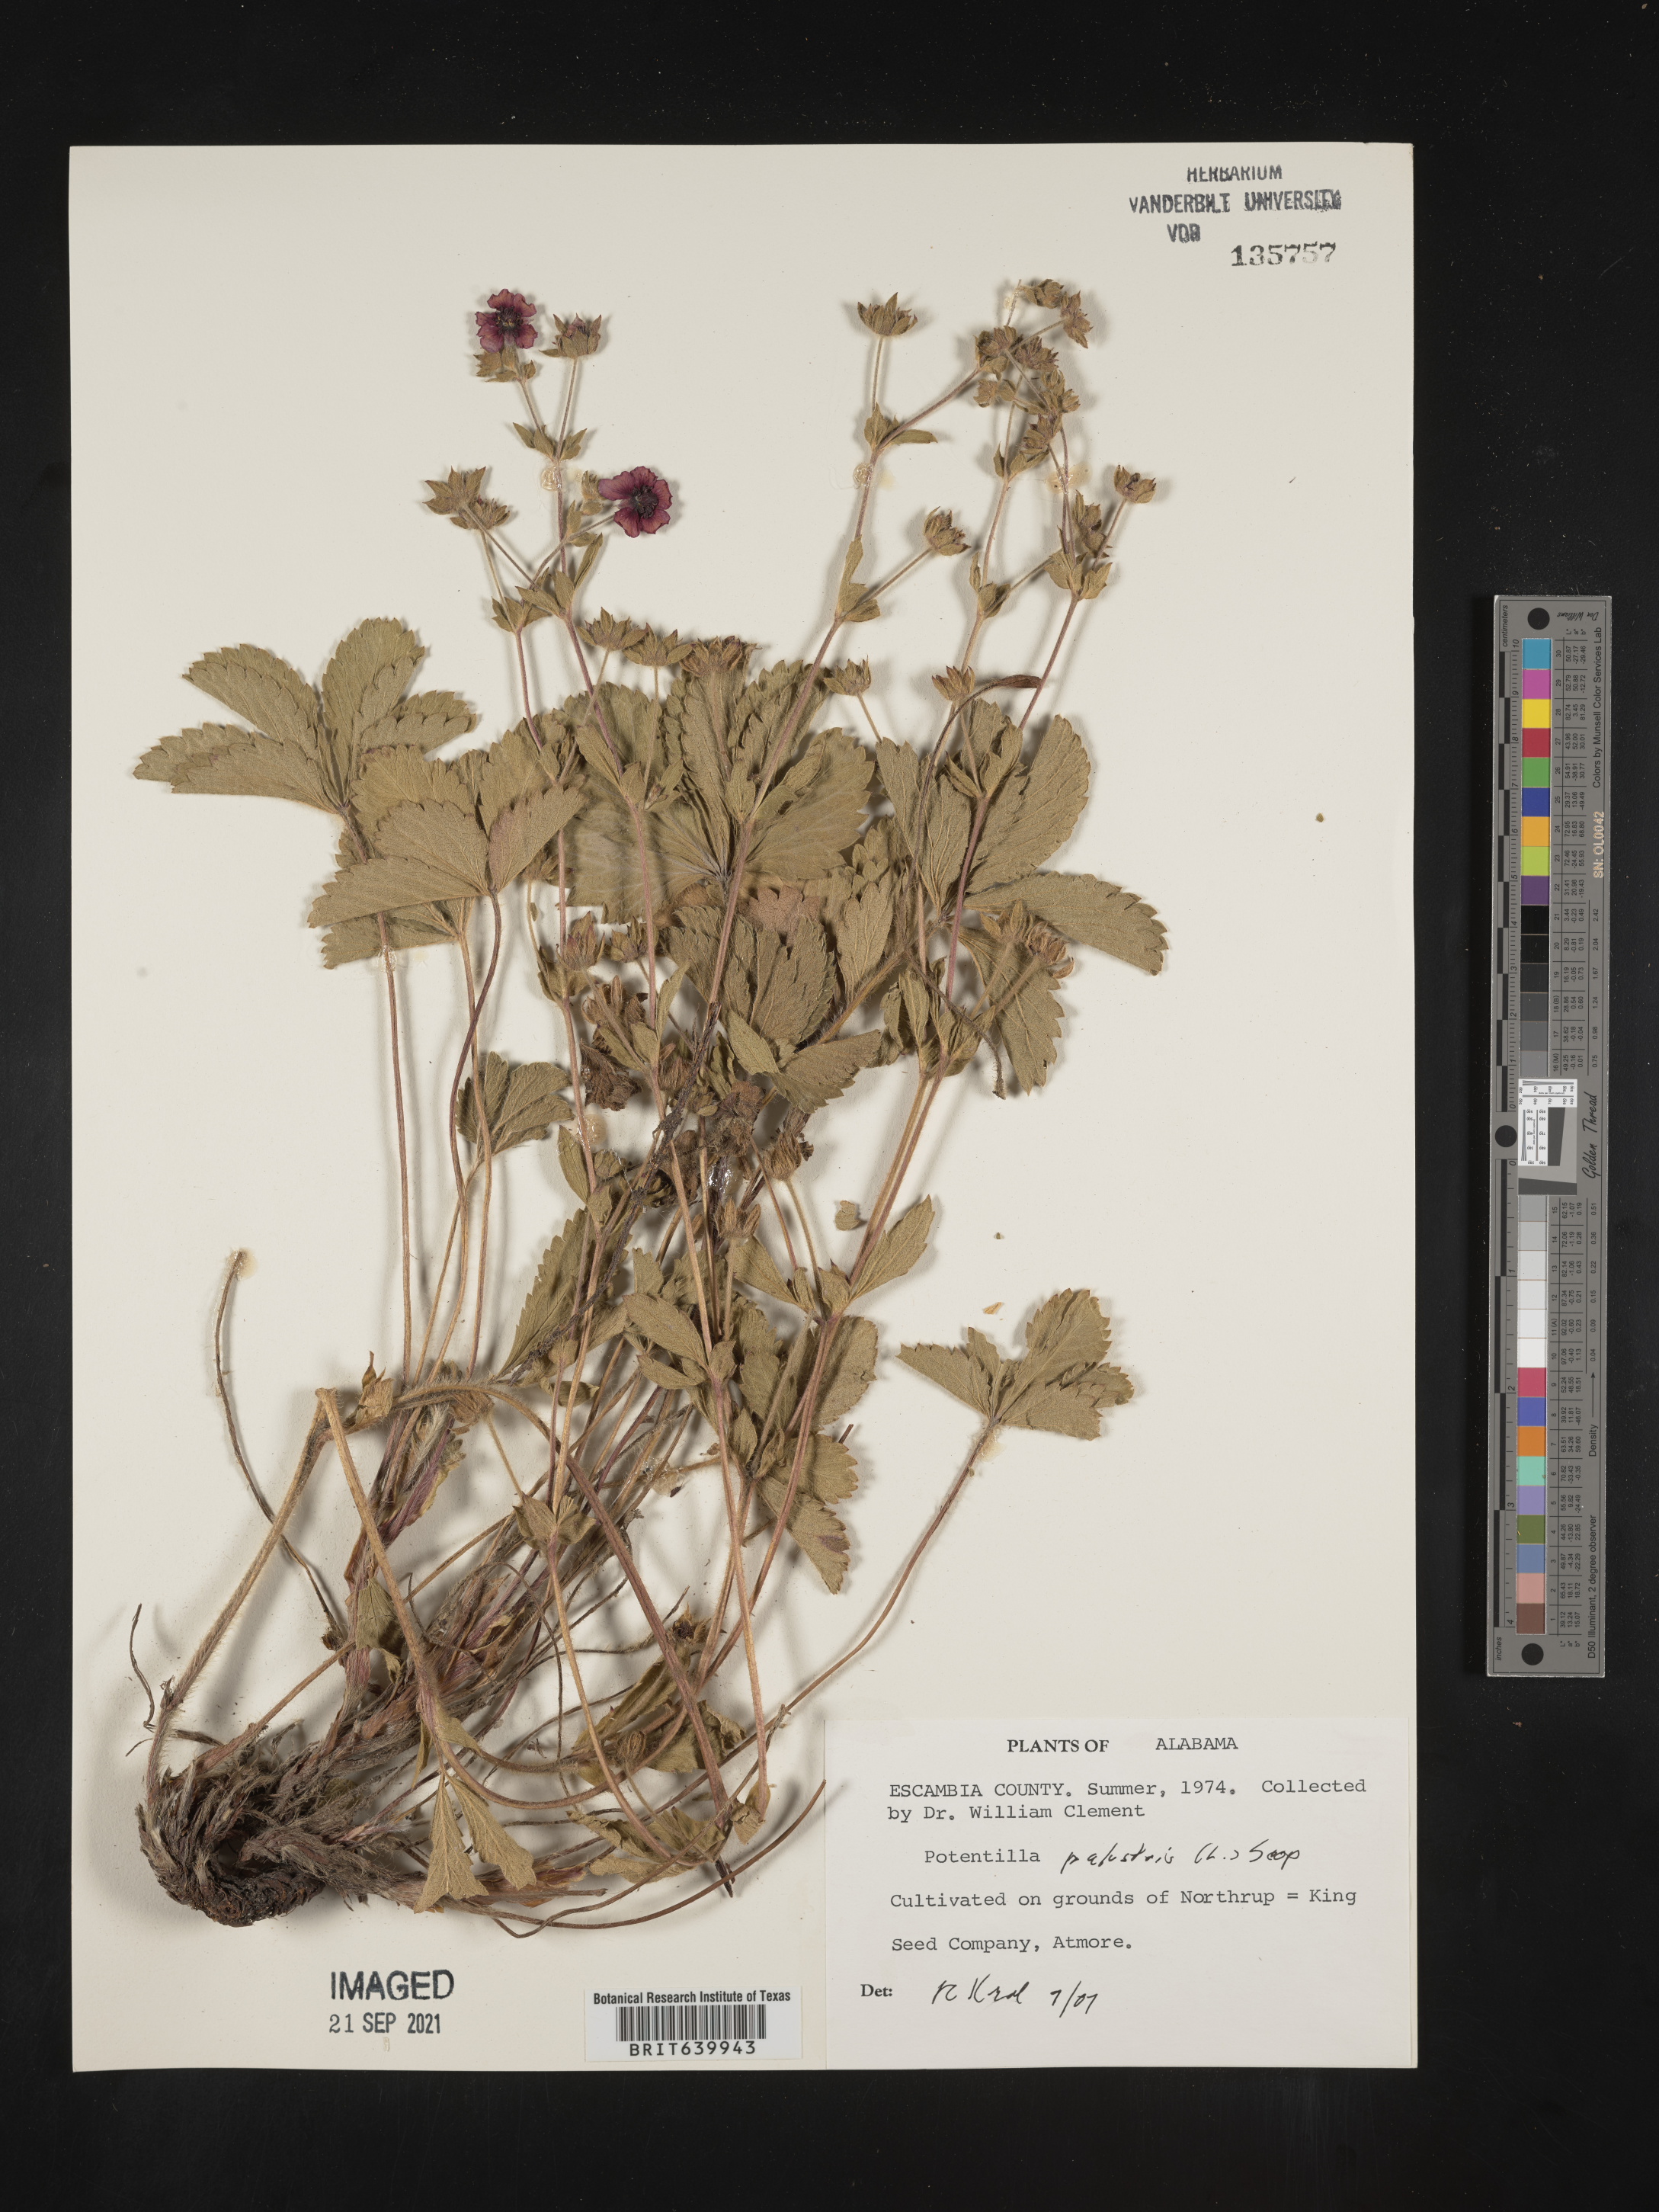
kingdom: Plantae
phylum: Tracheophyta
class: Magnoliopsida
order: Rosales
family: Rosaceae
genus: Potentilla
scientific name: Potentilla
